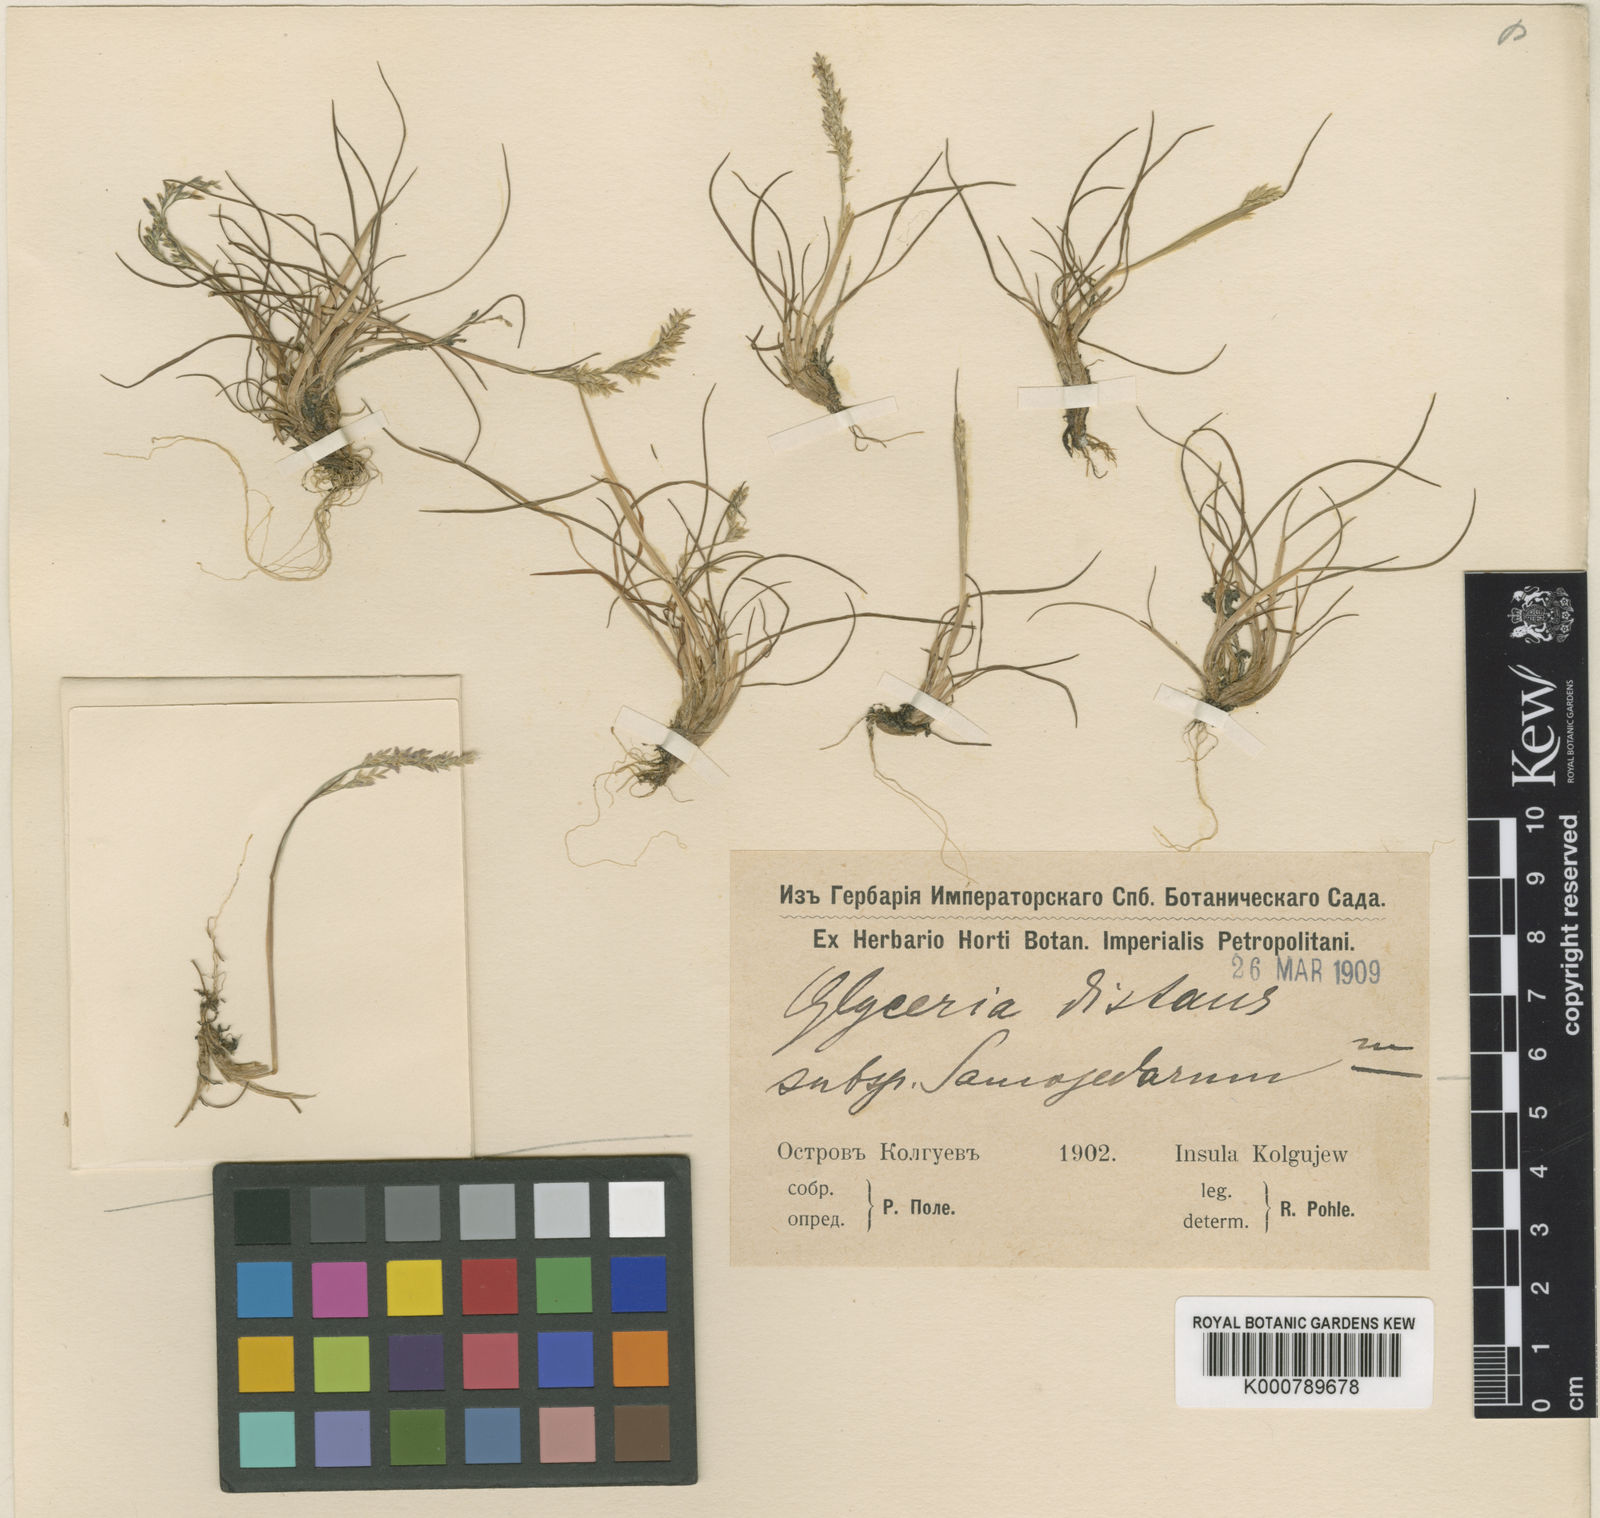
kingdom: Plantae
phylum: Tracheophyta
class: Liliopsida
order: Poales
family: Poaceae
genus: Puccinellia
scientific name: Puccinellia distans
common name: Weeping alkaligrass
